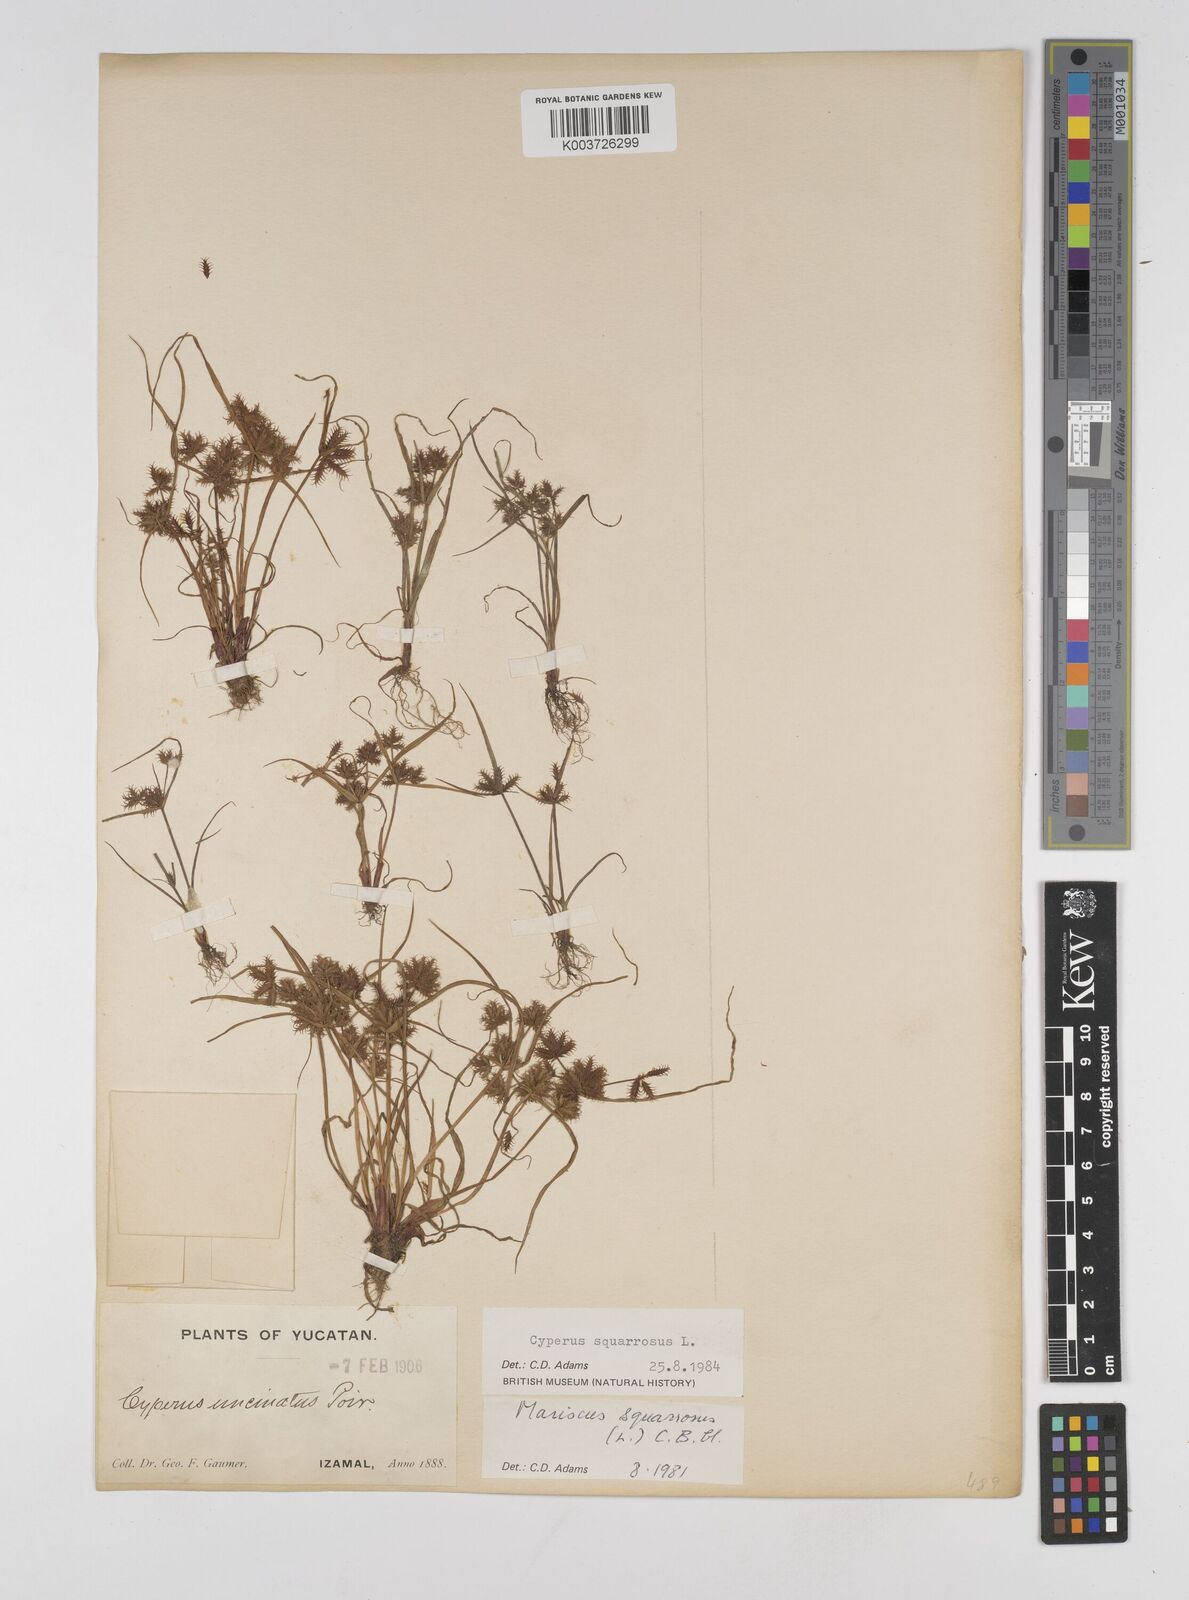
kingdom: Plantae
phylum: Tracheophyta
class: Liliopsida
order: Poales
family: Cyperaceae
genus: Cyperus
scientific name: Cyperus squarrosus
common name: Awned cyperus
